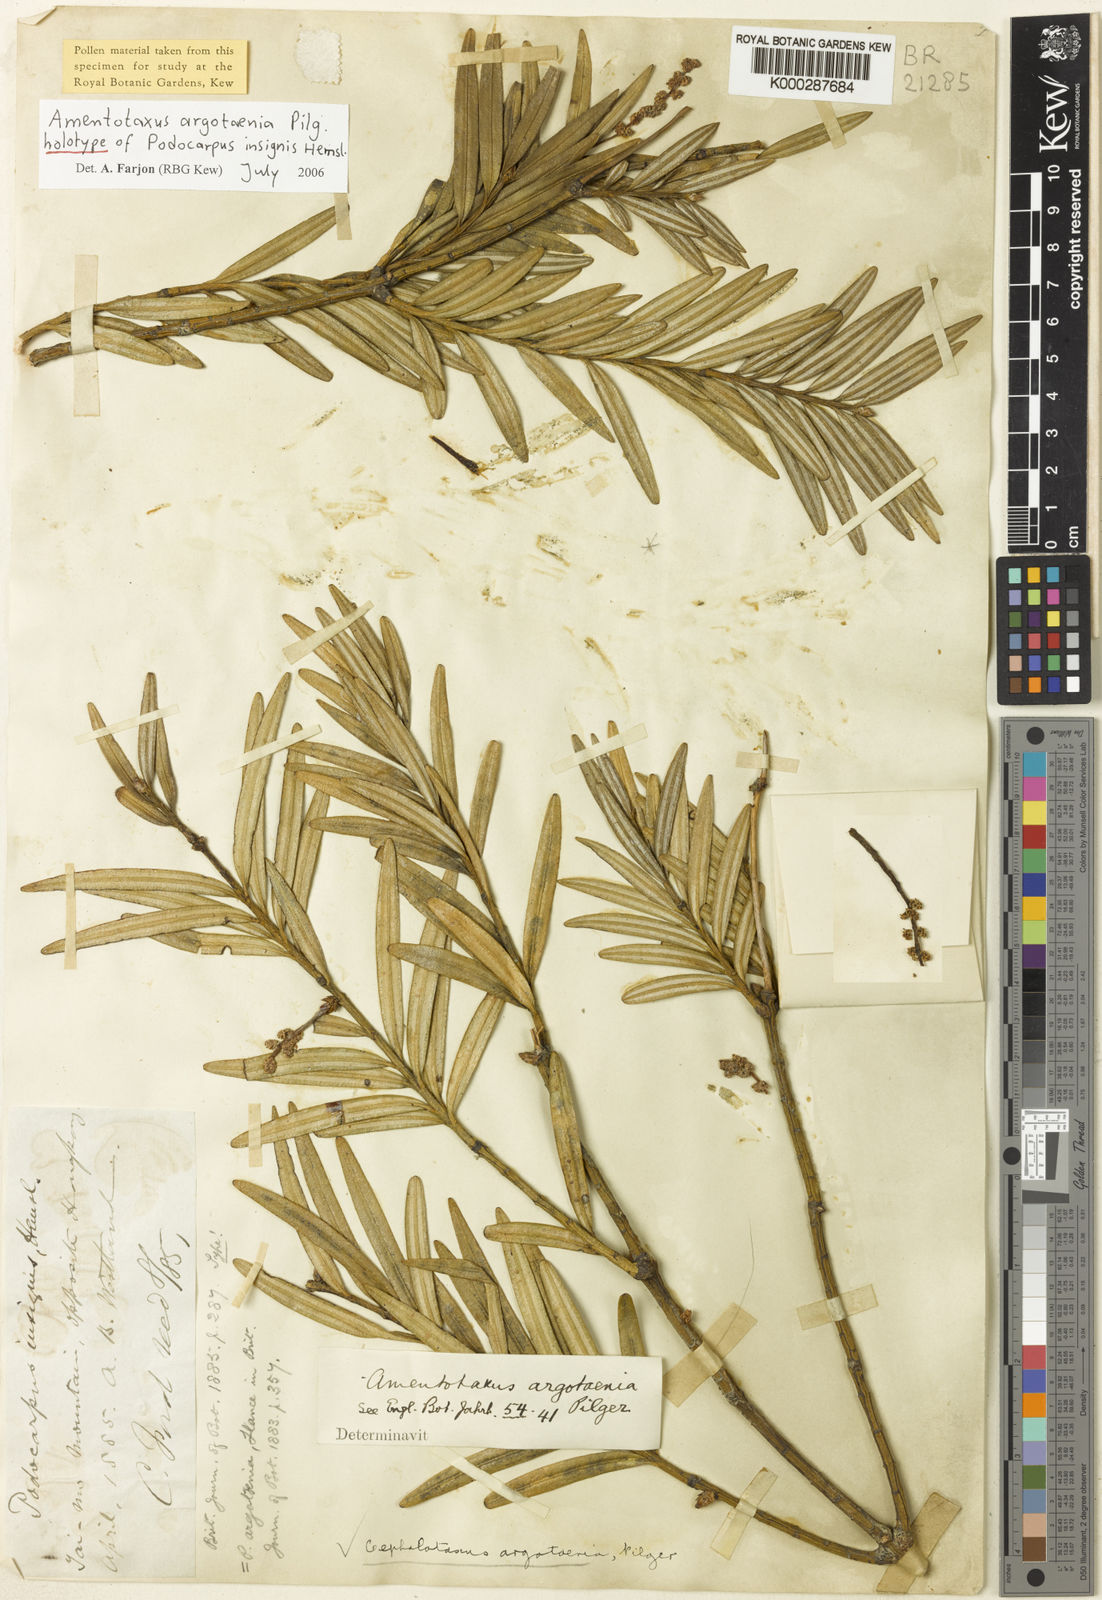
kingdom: Plantae
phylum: Tracheophyta
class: Pinopsida
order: Pinales
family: Taxaceae
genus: Amentotaxus
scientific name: Amentotaxus argotaenia
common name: Catkin yew
